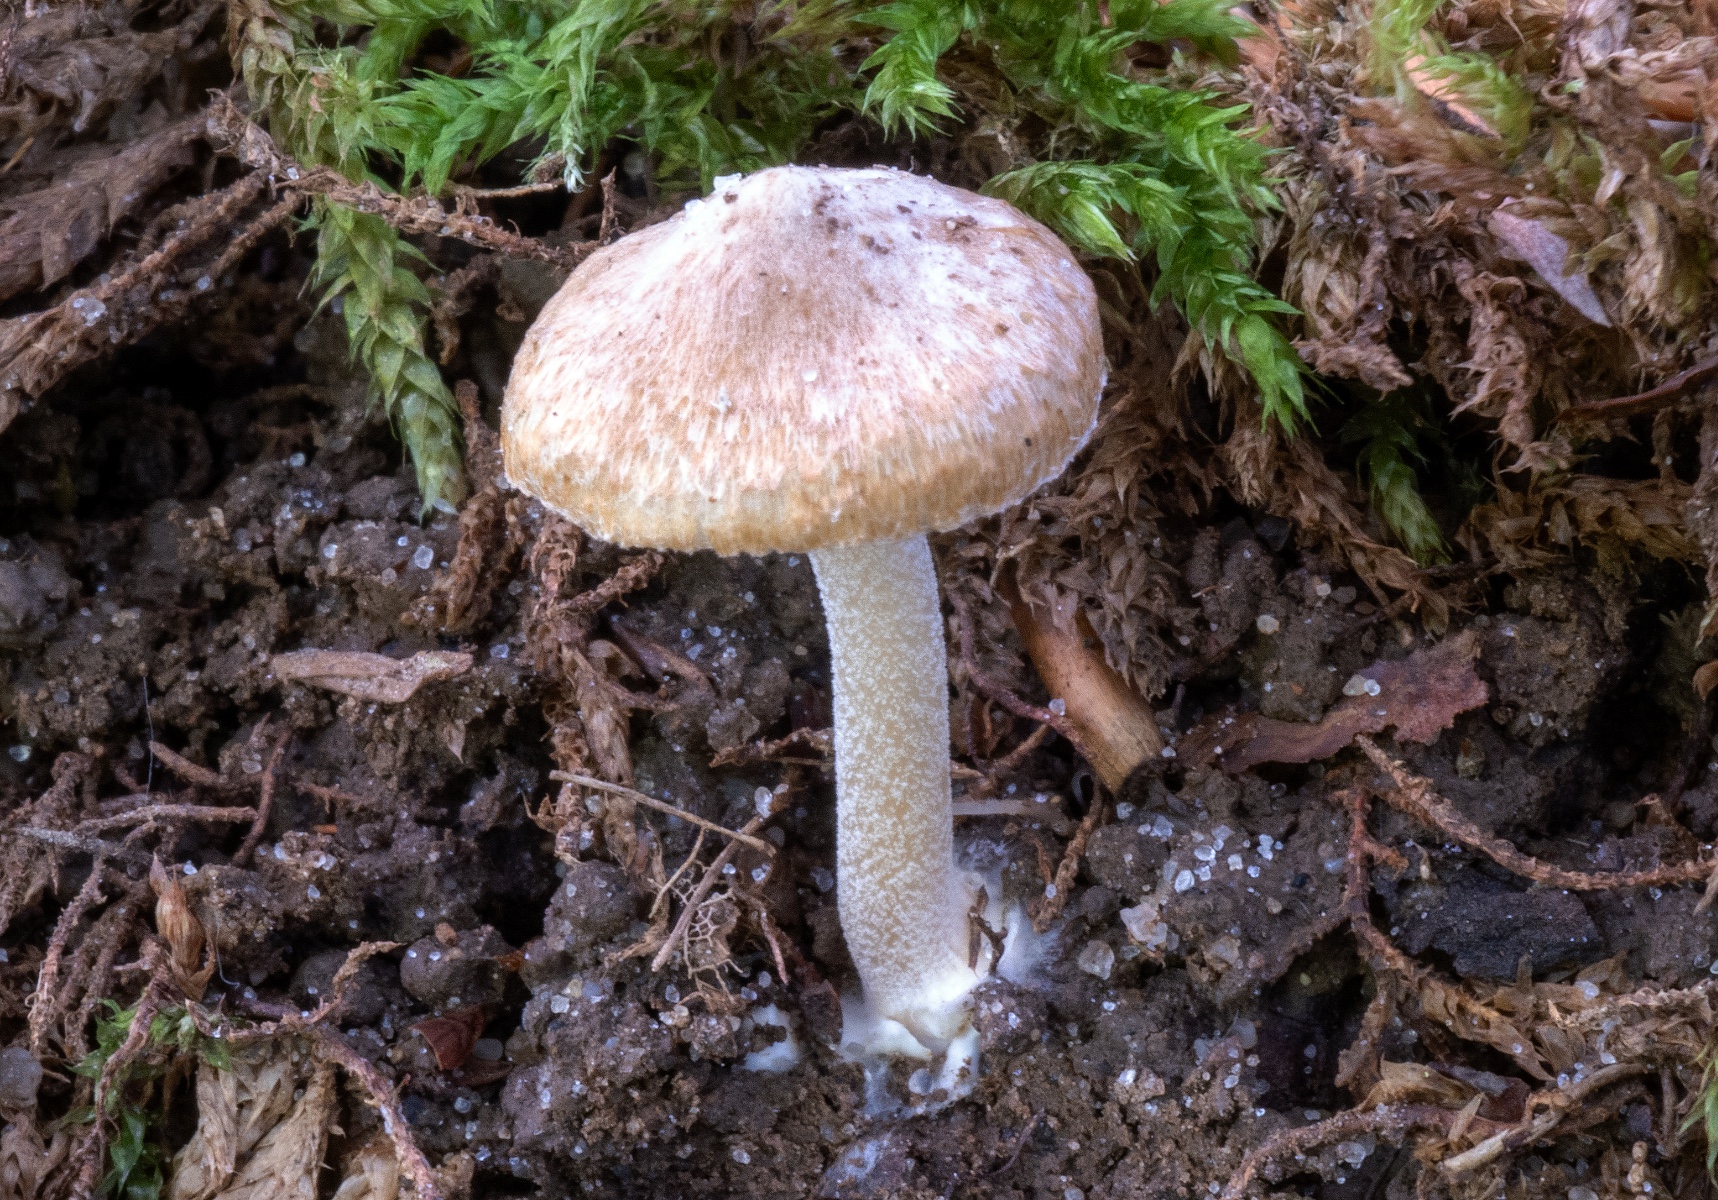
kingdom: Fungi
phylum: Basidiomycota
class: Agaricomycetes
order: Agaricales
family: Inocybaceae
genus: Inocybe
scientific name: Inocybe
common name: trævlhat
